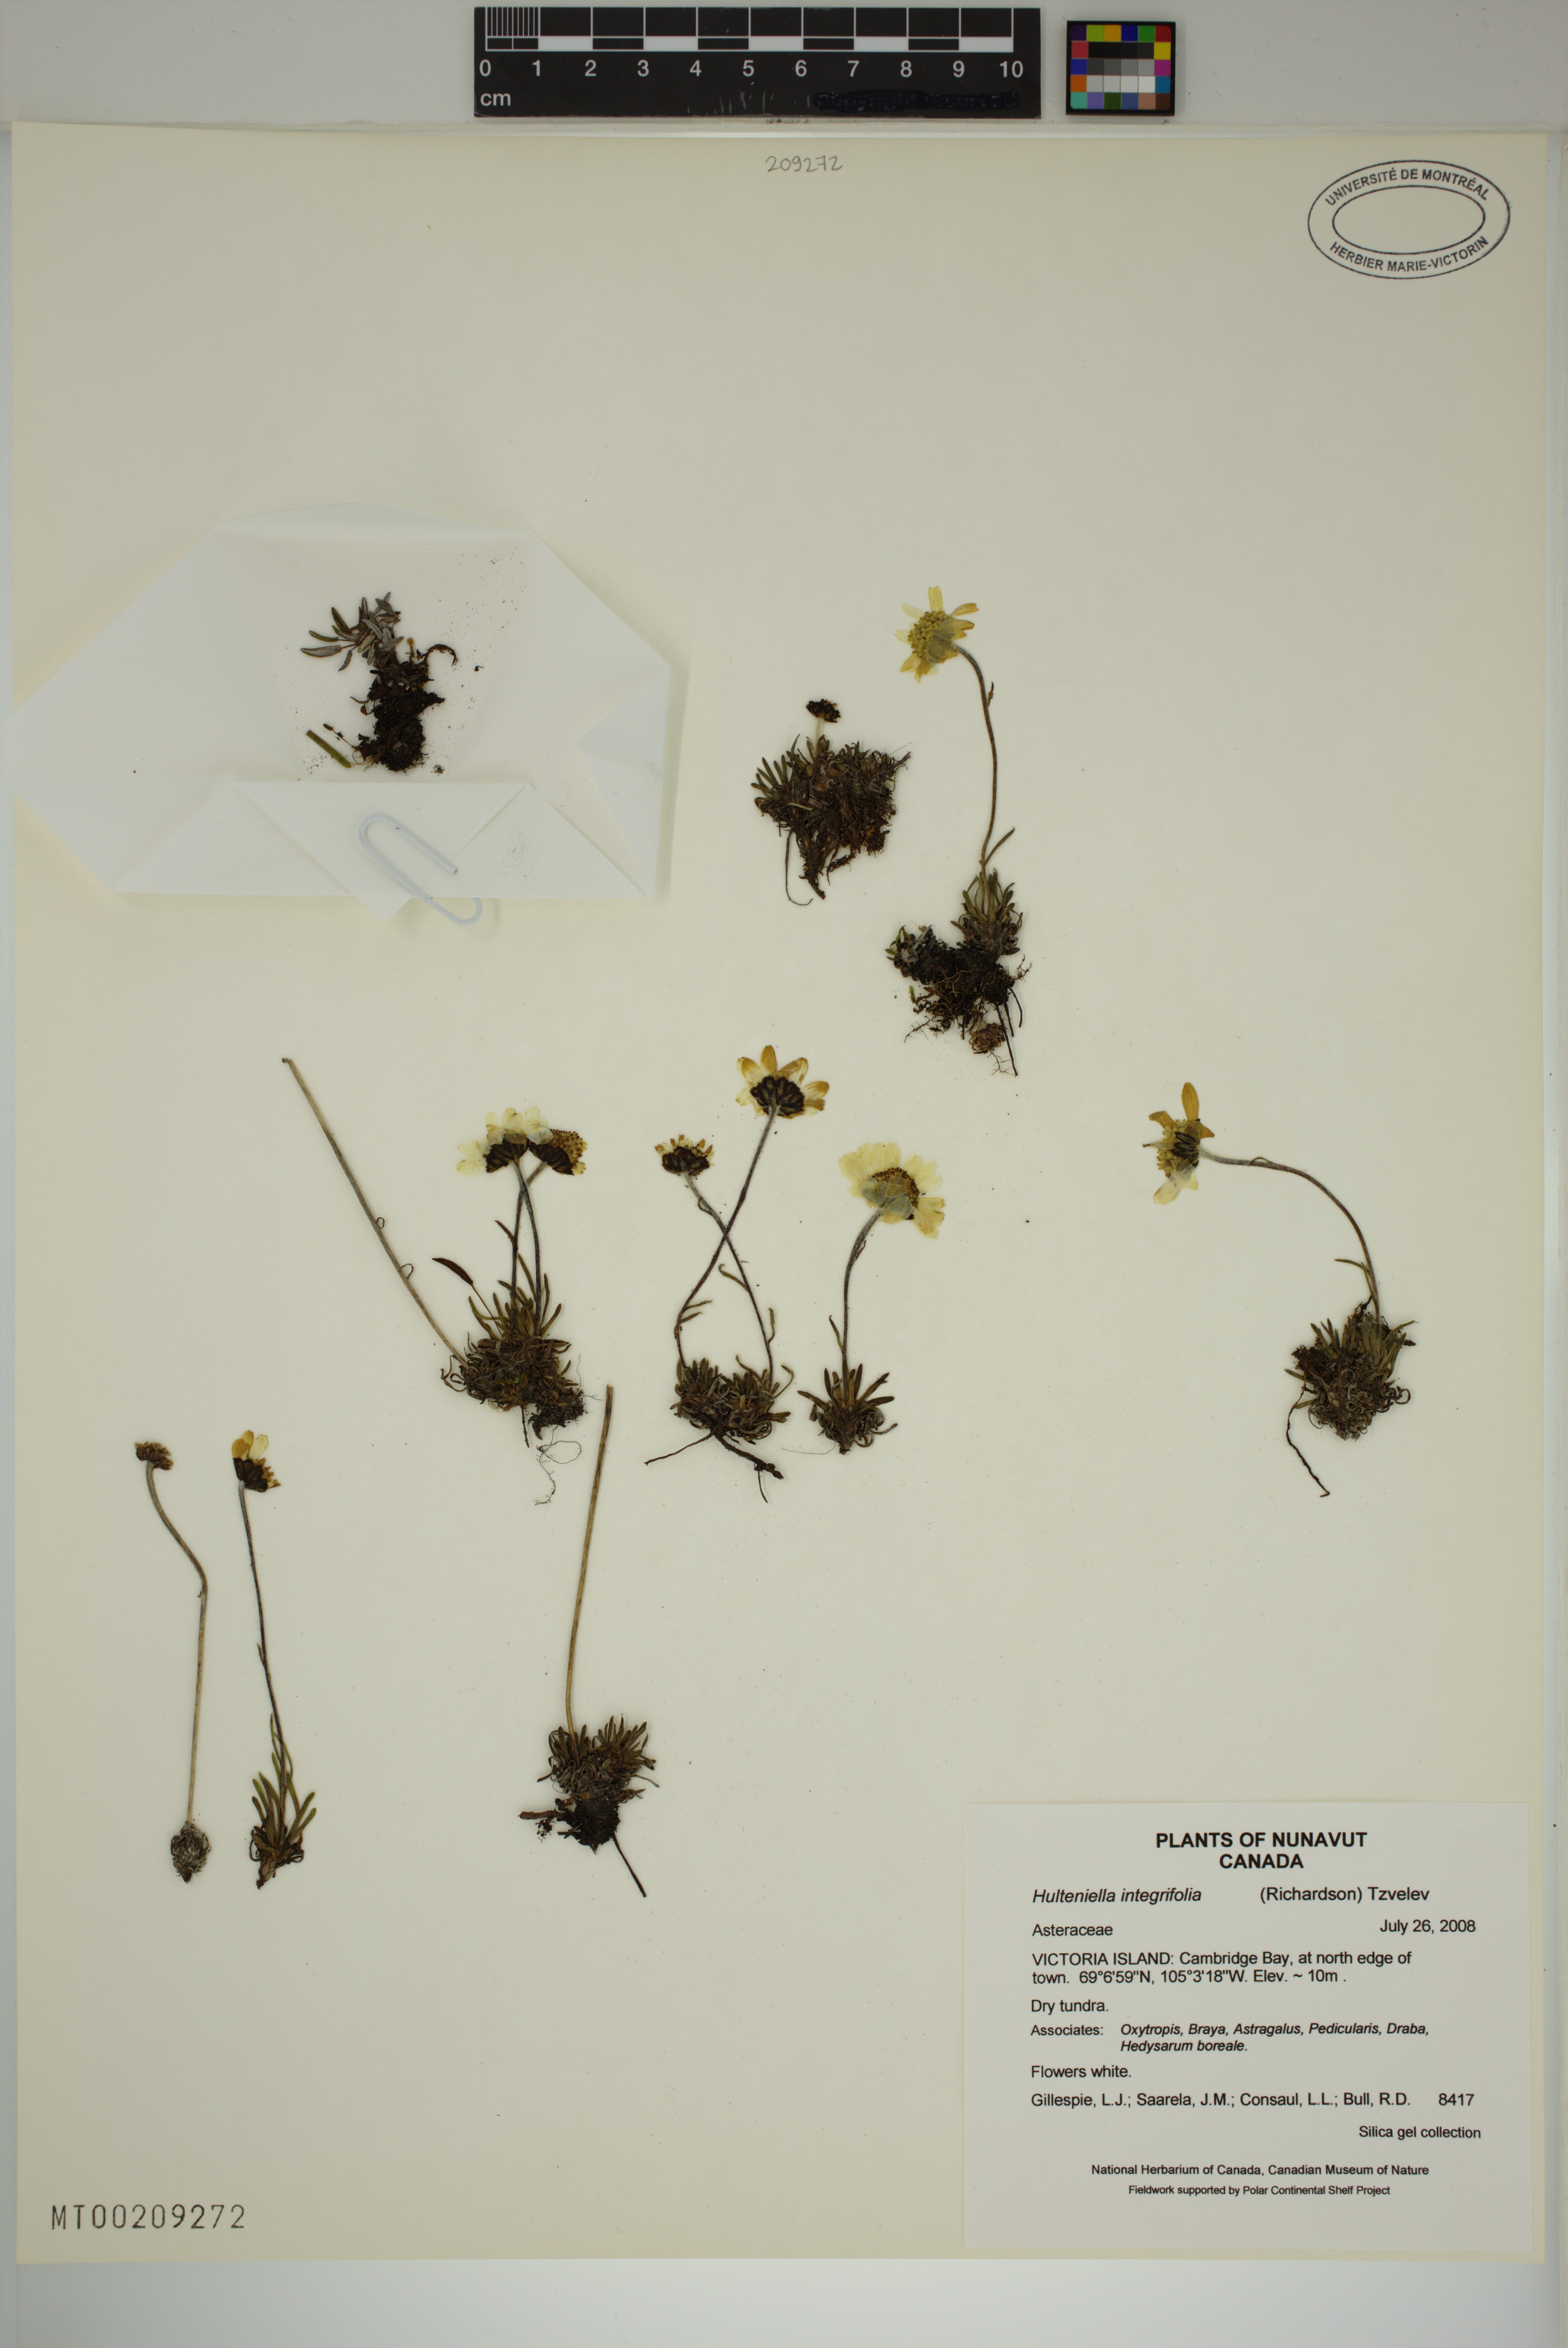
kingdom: Plantae
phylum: Tracheophyta
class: Magnoliopsida
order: Asterales
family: Asteraceae
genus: Arctanthemum
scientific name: Arctanthemum integrifolium
